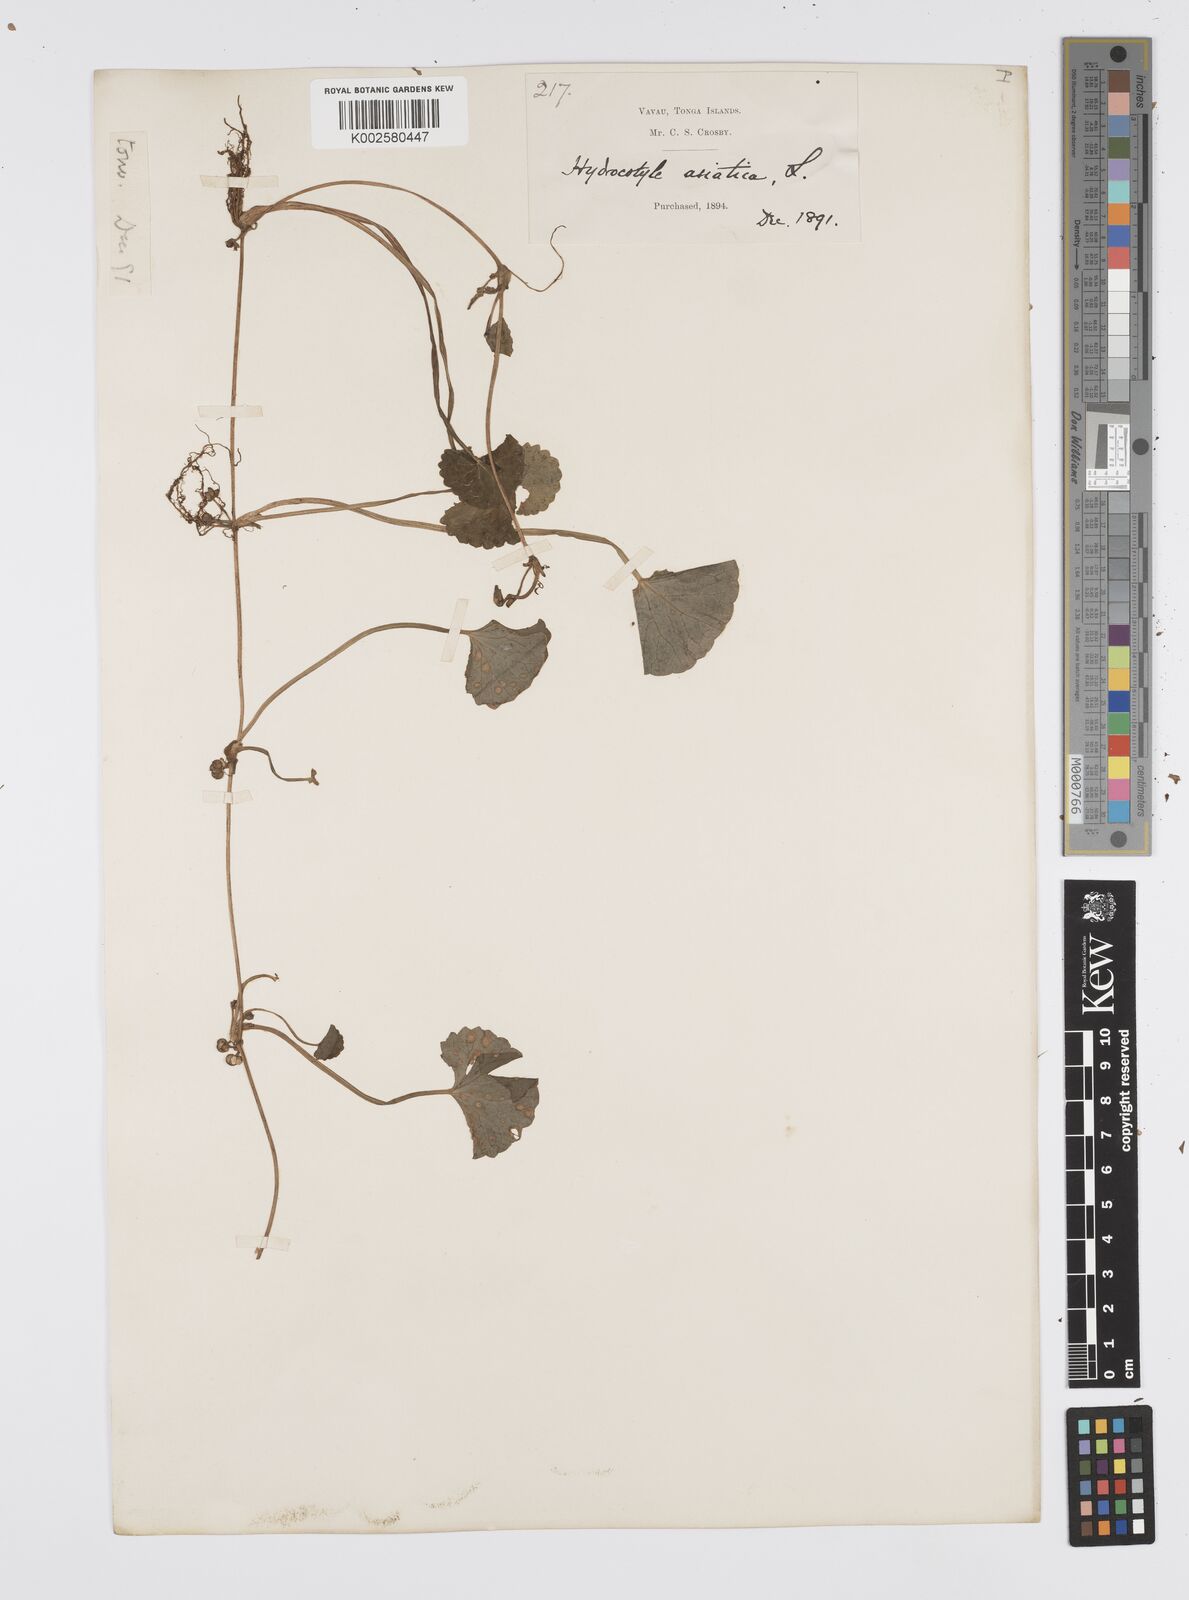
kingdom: Plantae
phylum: Tracheophyta
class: Magnoliopsida
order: Apiales
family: Apiaceae
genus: Centella
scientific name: Centella asiatica
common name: Spadeleaf
